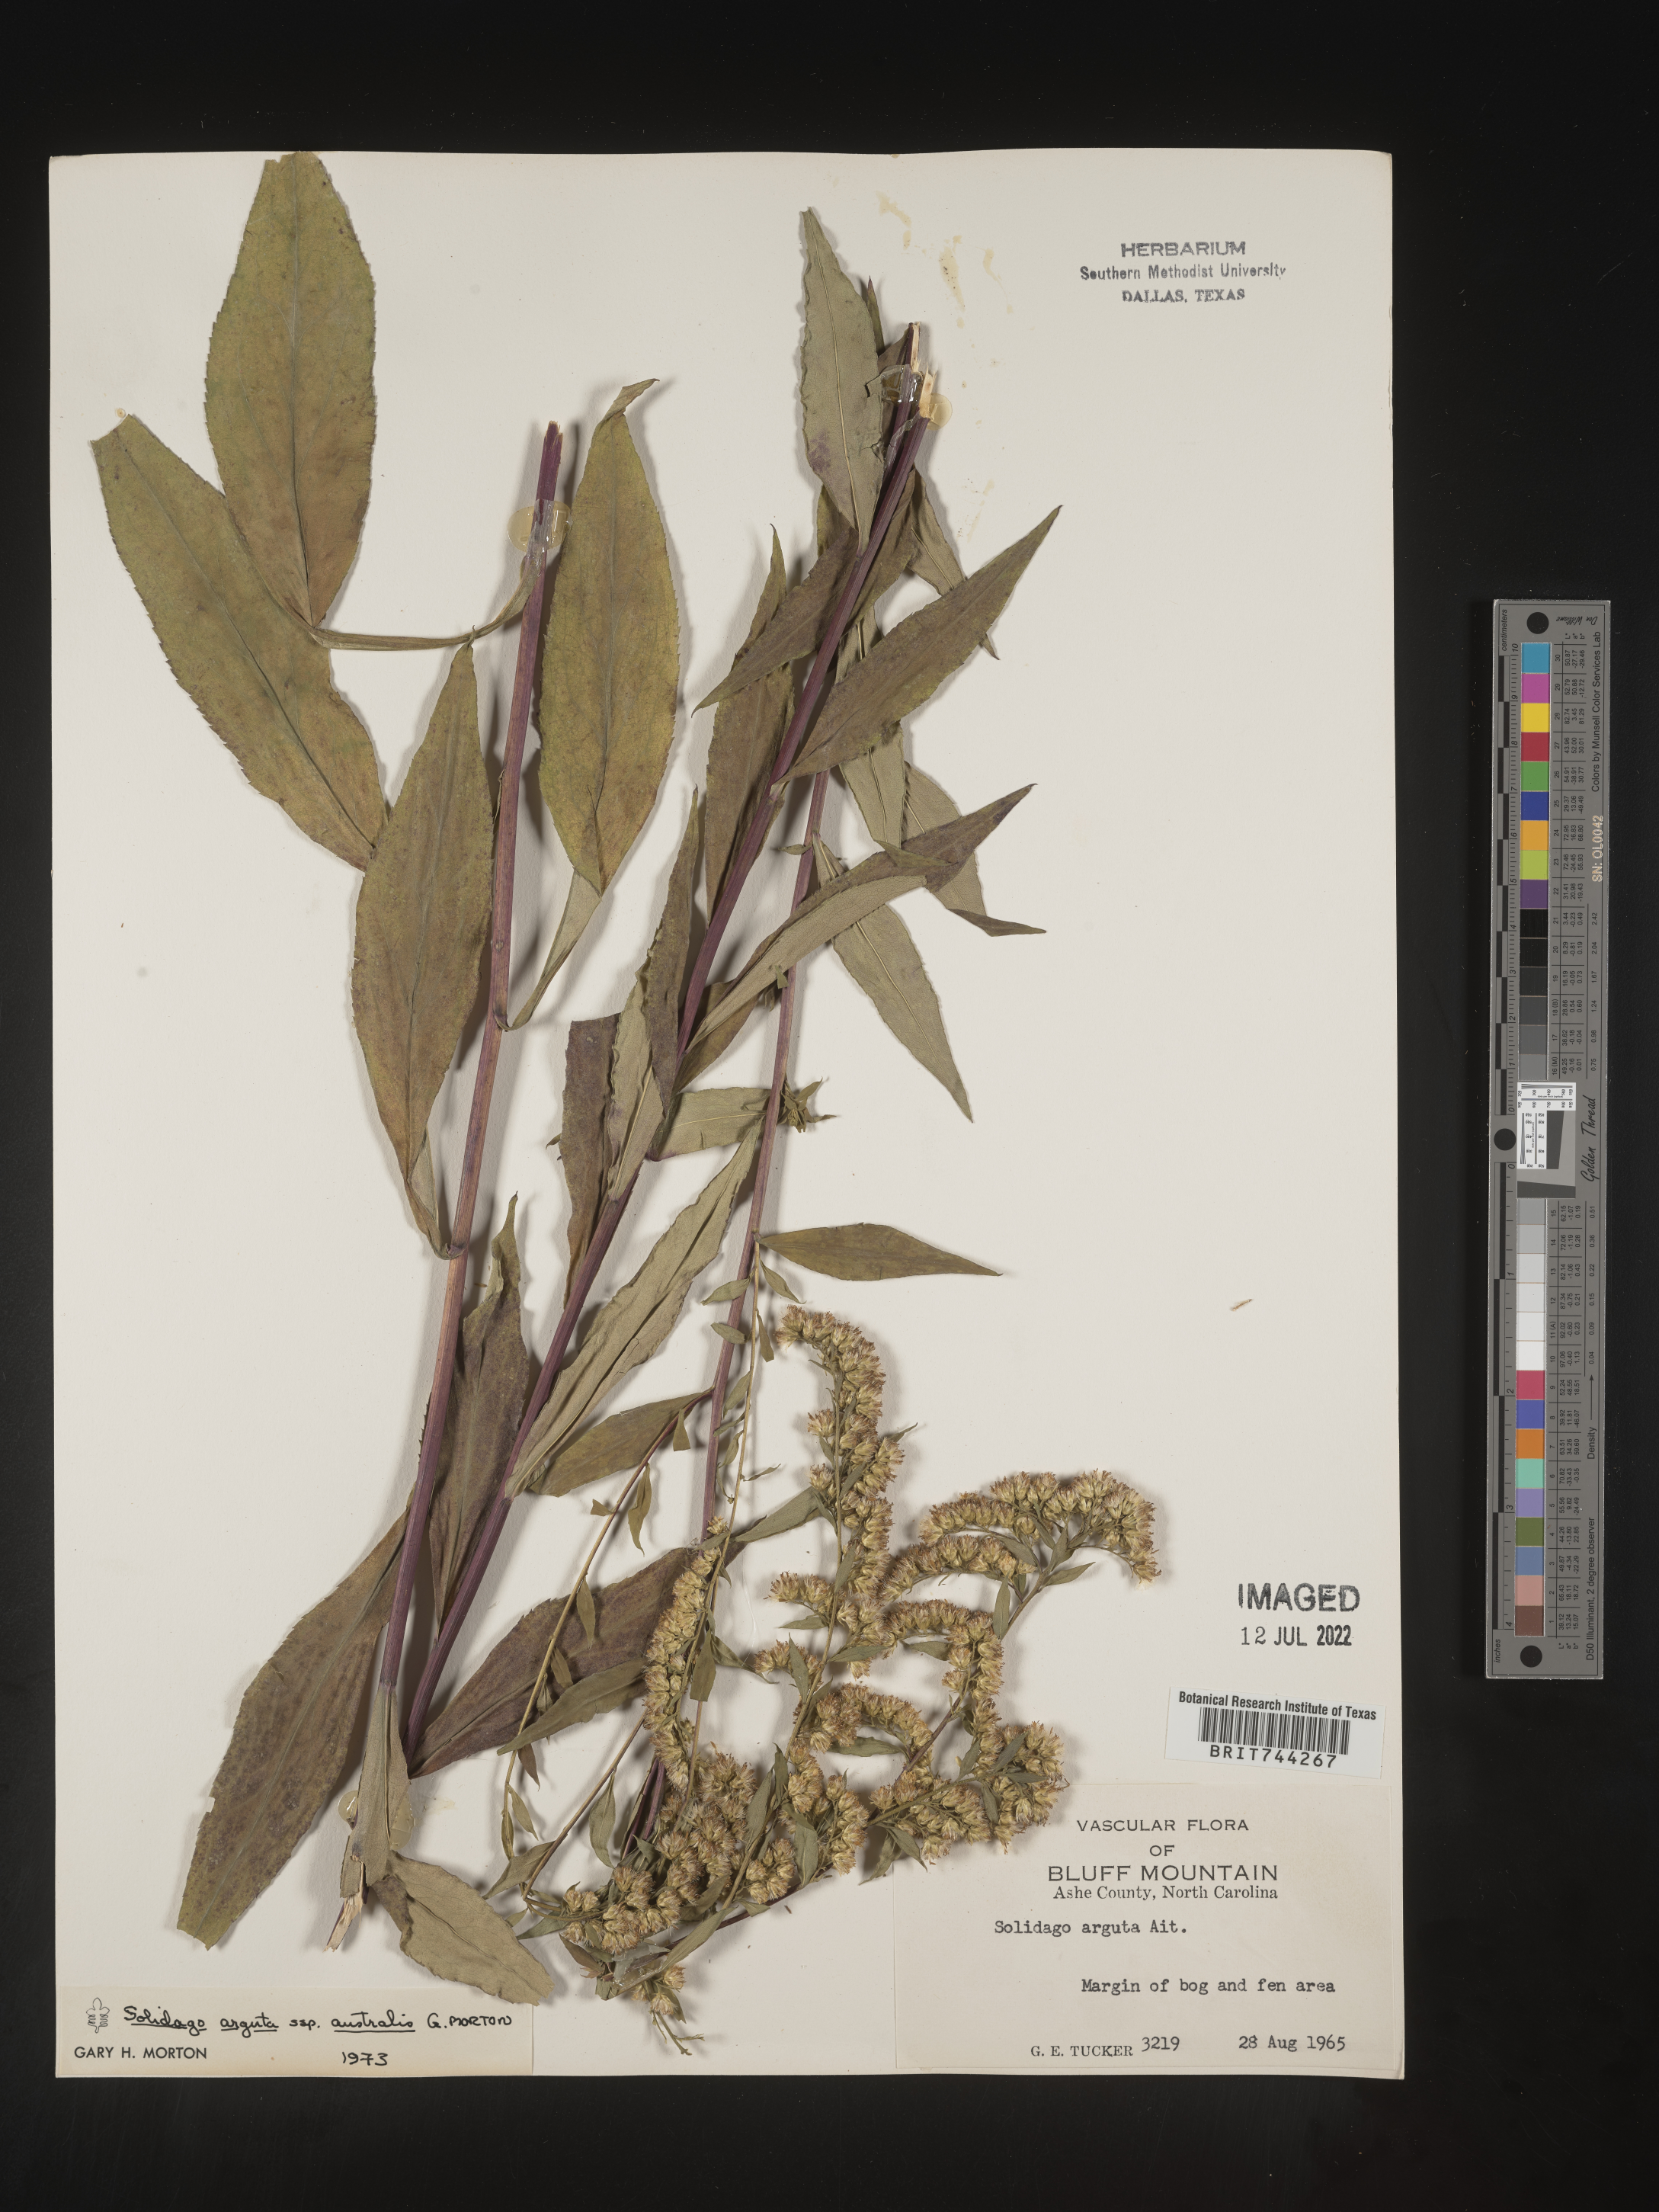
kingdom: Plantae
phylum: Tracheophyta
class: Magnoliopsida
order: Asterales
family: Asteraceae
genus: Solidago
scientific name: Solidago vaseyi
